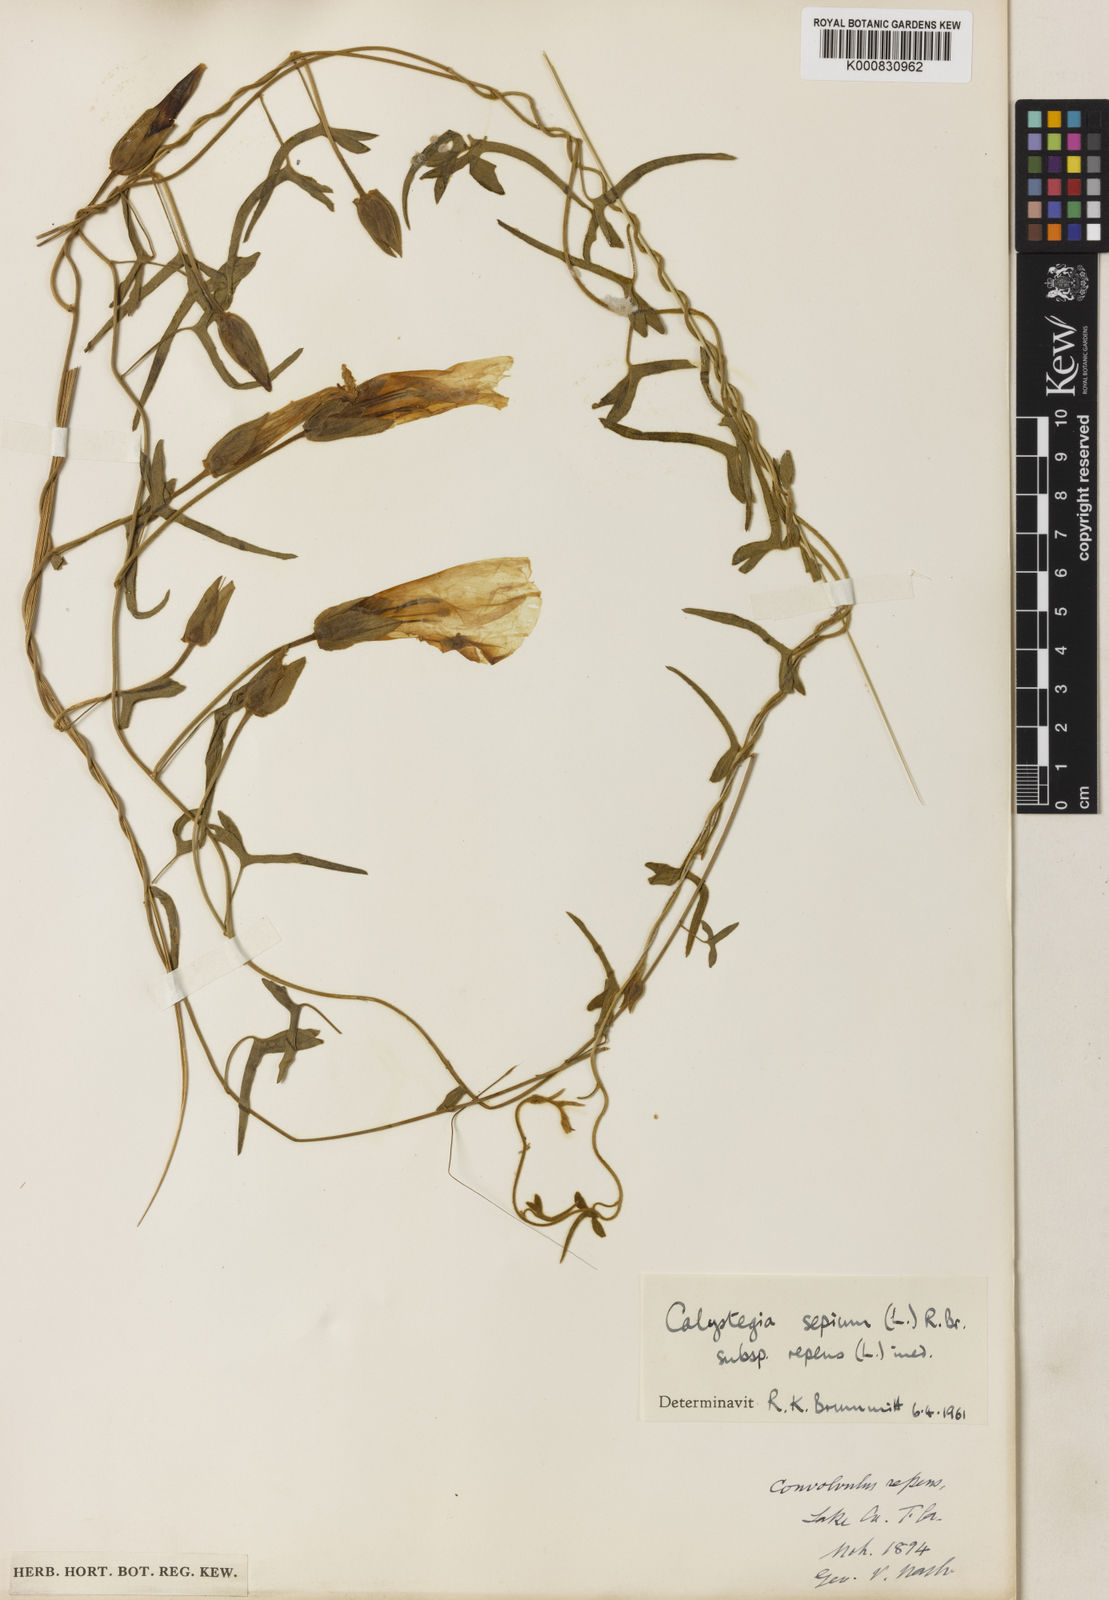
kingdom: Plantae
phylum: Tracheophyta
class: Magnoliopsida
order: Solanales
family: Convolvulaceae
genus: Calystegia
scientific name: Calystegia sepium
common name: Hedge bindweed
